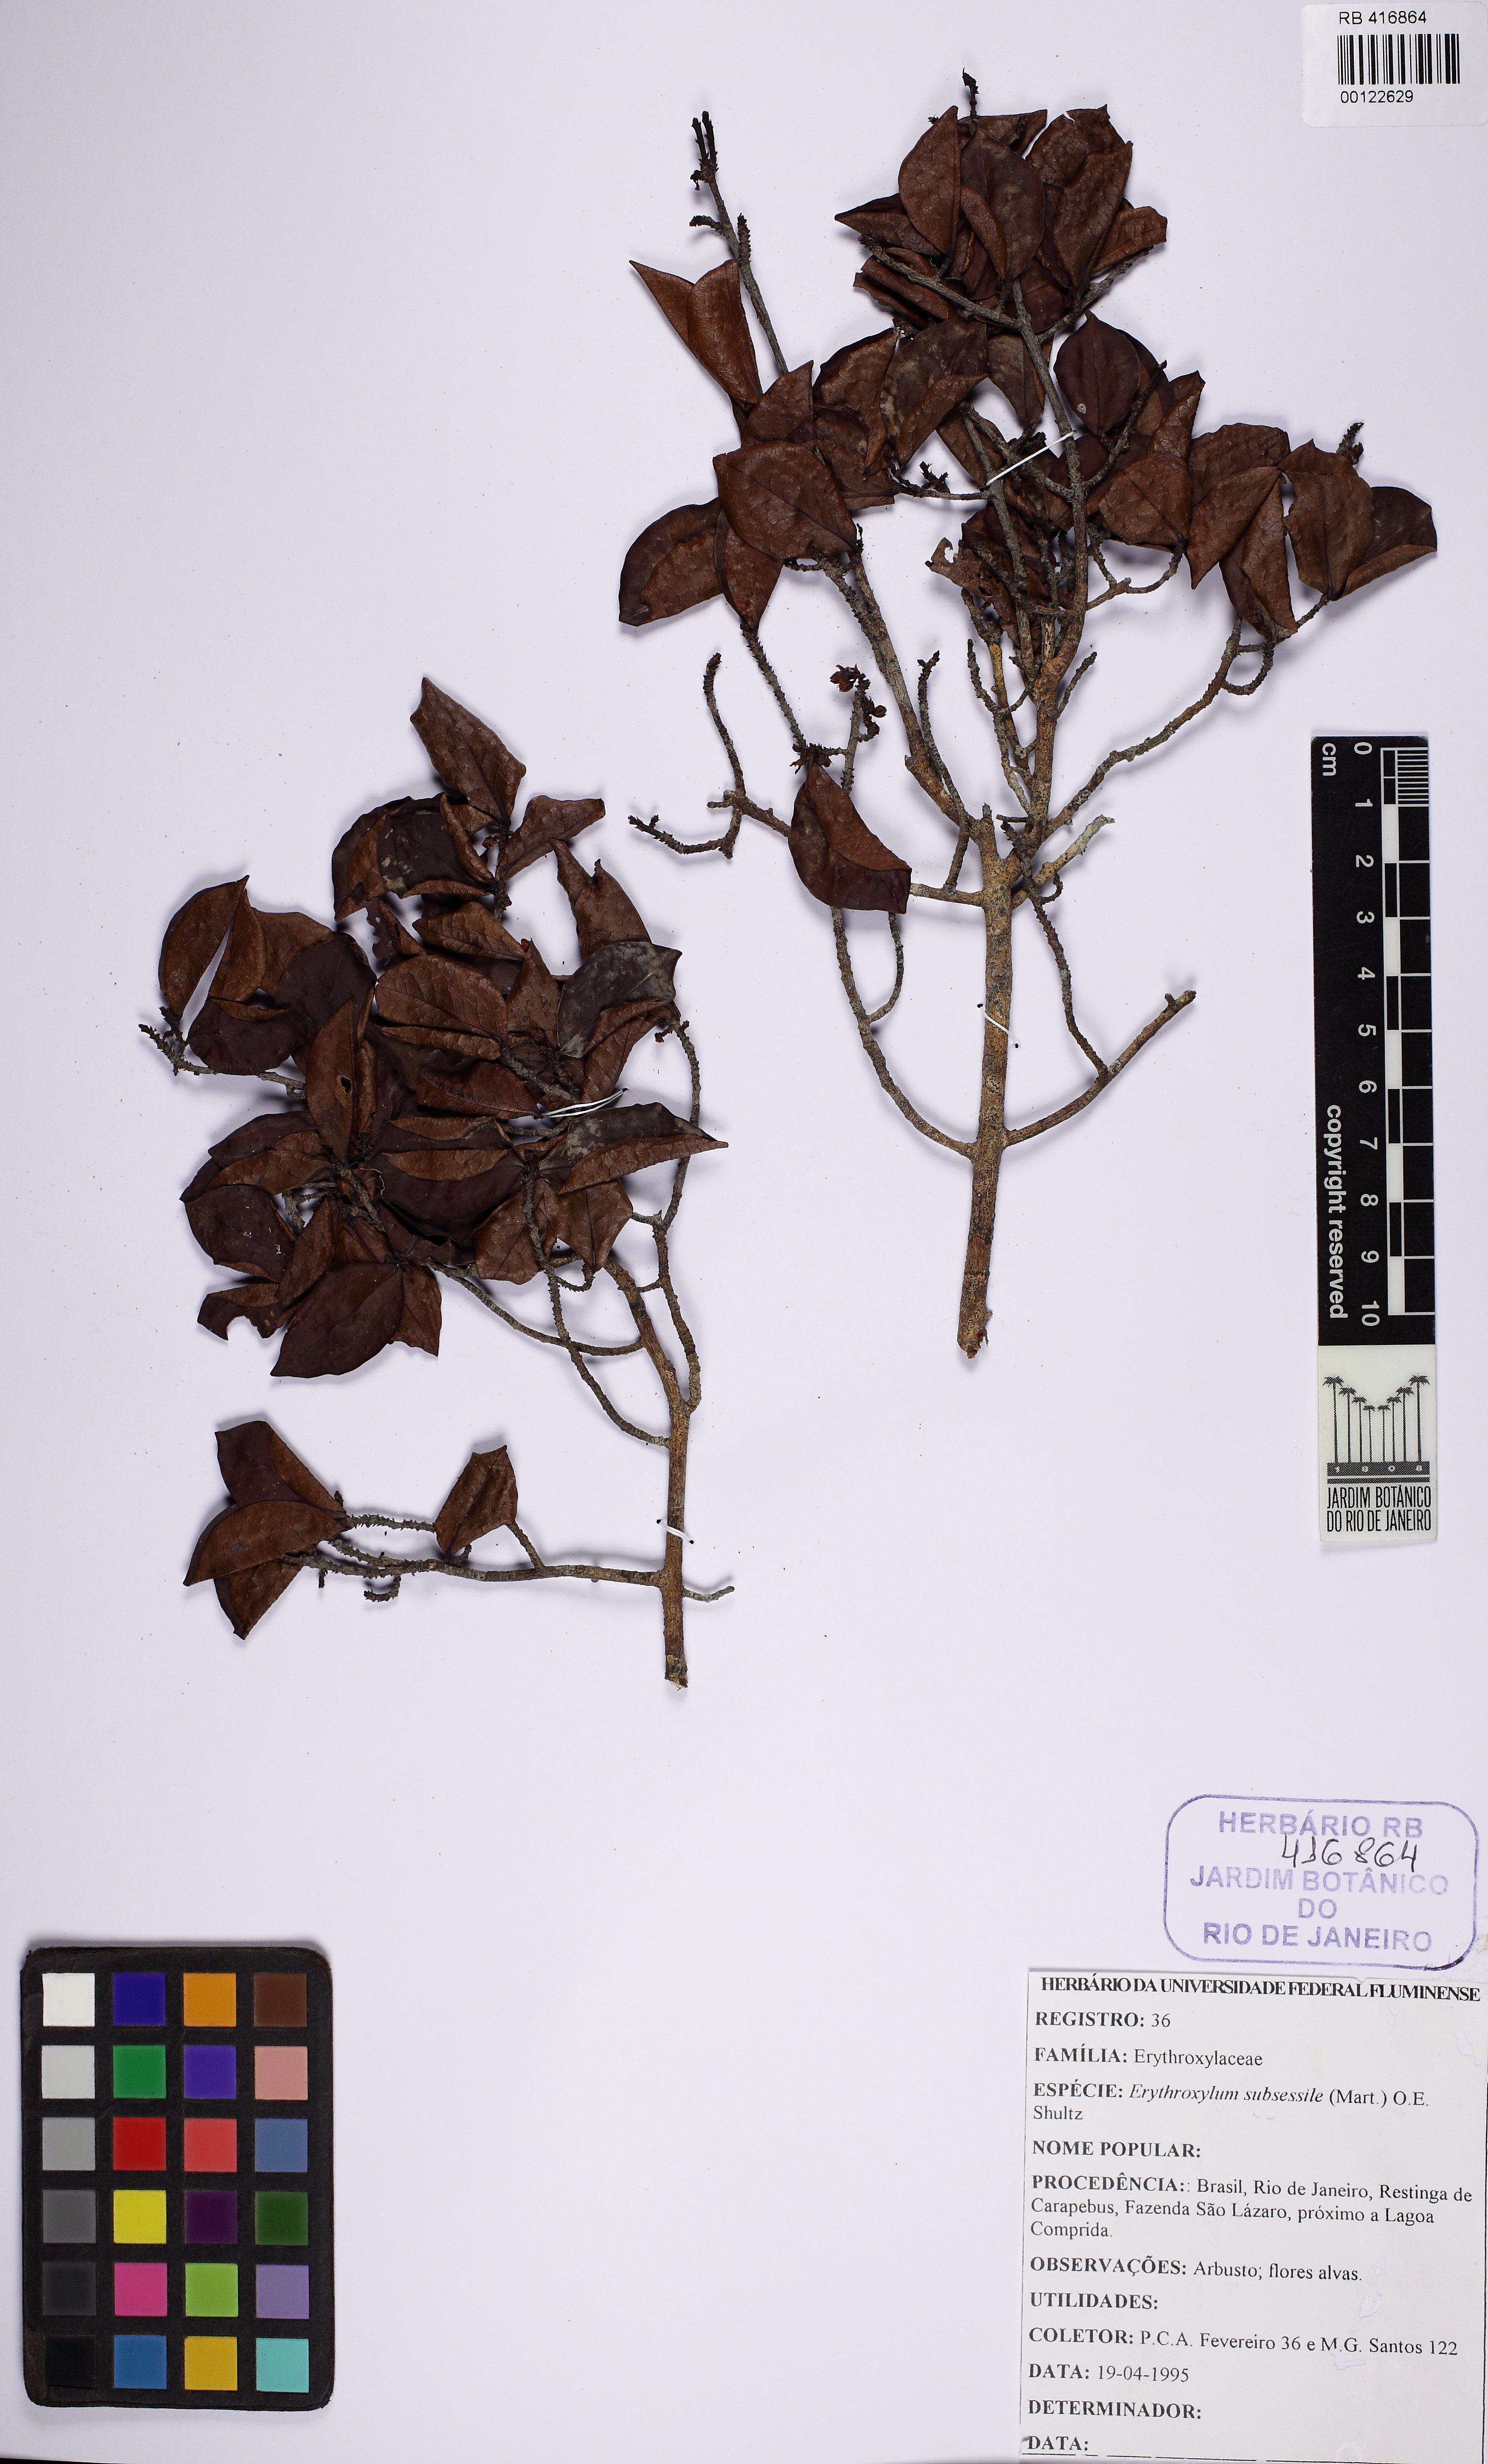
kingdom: Plantae
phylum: Tracheophyta
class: Magnoliopsida
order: Malpighiales
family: Erythroxylaceae
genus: Erythroxylum
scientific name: Erythroxylum macrocalyx
